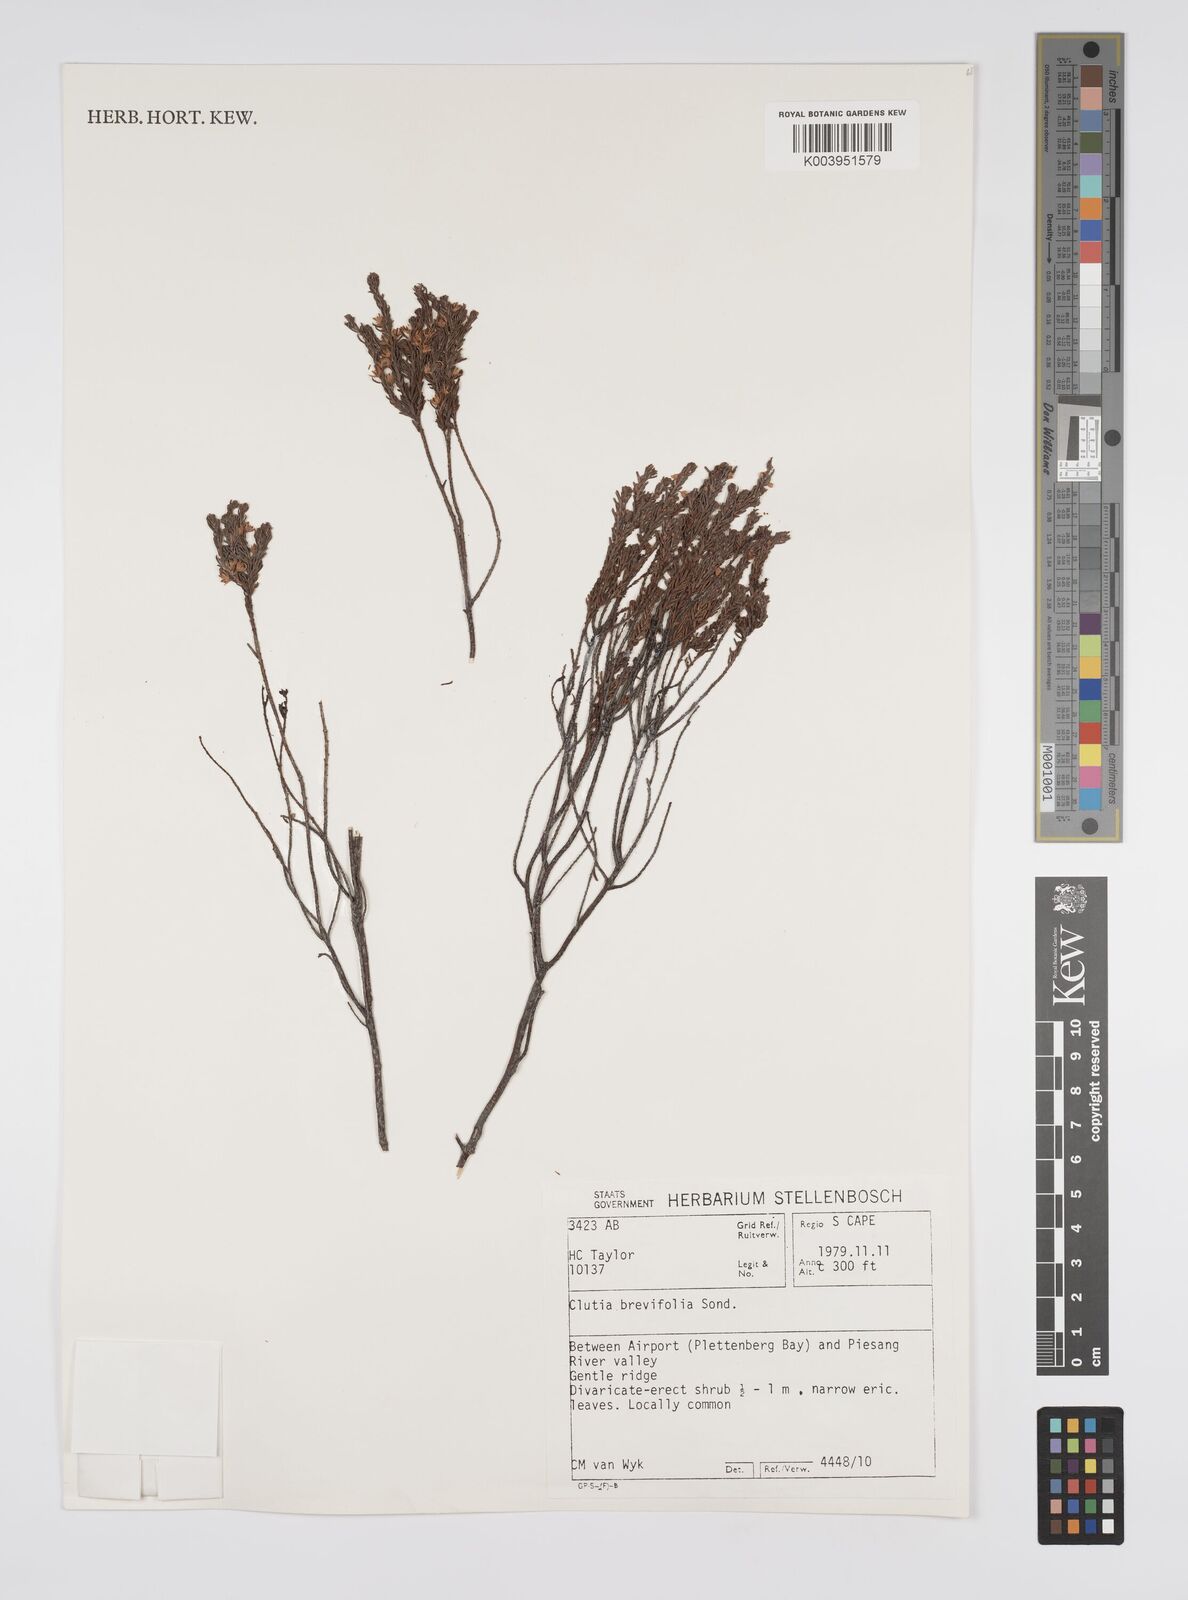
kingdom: Plantae
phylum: Tracheophyta
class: Magnoliopsida
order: Malpighiales
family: Peraceae
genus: Clutia
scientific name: Clutia brevifolia
